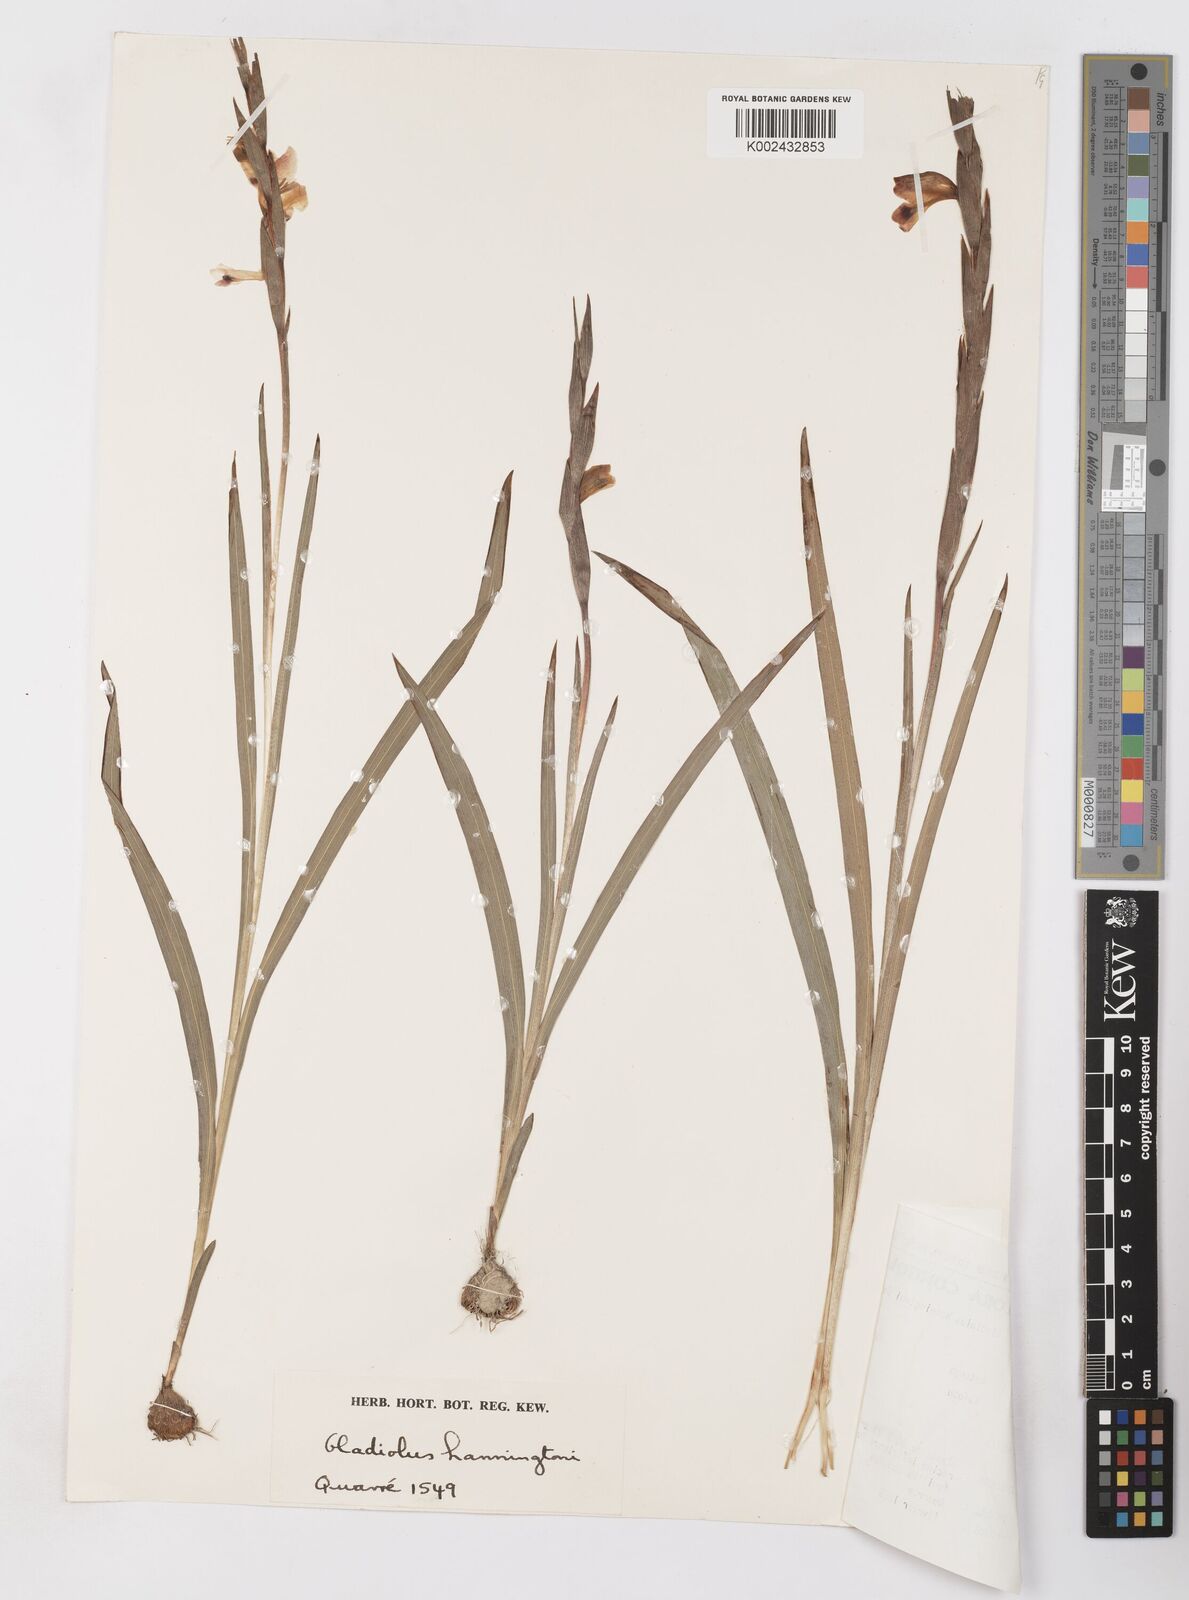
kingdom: Plantae
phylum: Tracheophyta
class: Liliopsida
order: Asparagales
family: Iridaceae
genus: Gladiolus
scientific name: Gladiolus gregarius
